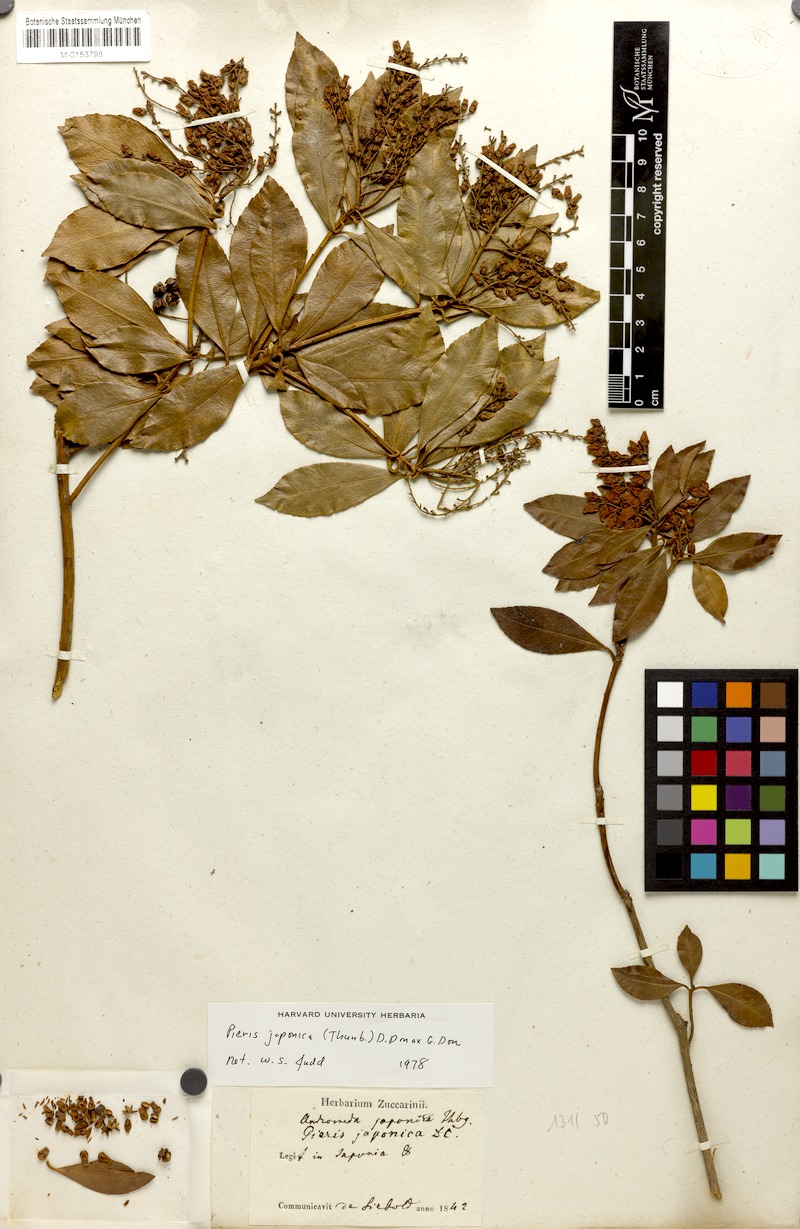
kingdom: Plantae
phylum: Tracheophyta
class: Magnoliopsida
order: Ericales
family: Ericaceae
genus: Pieris
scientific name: Pieris japonica
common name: Japanese pieris
